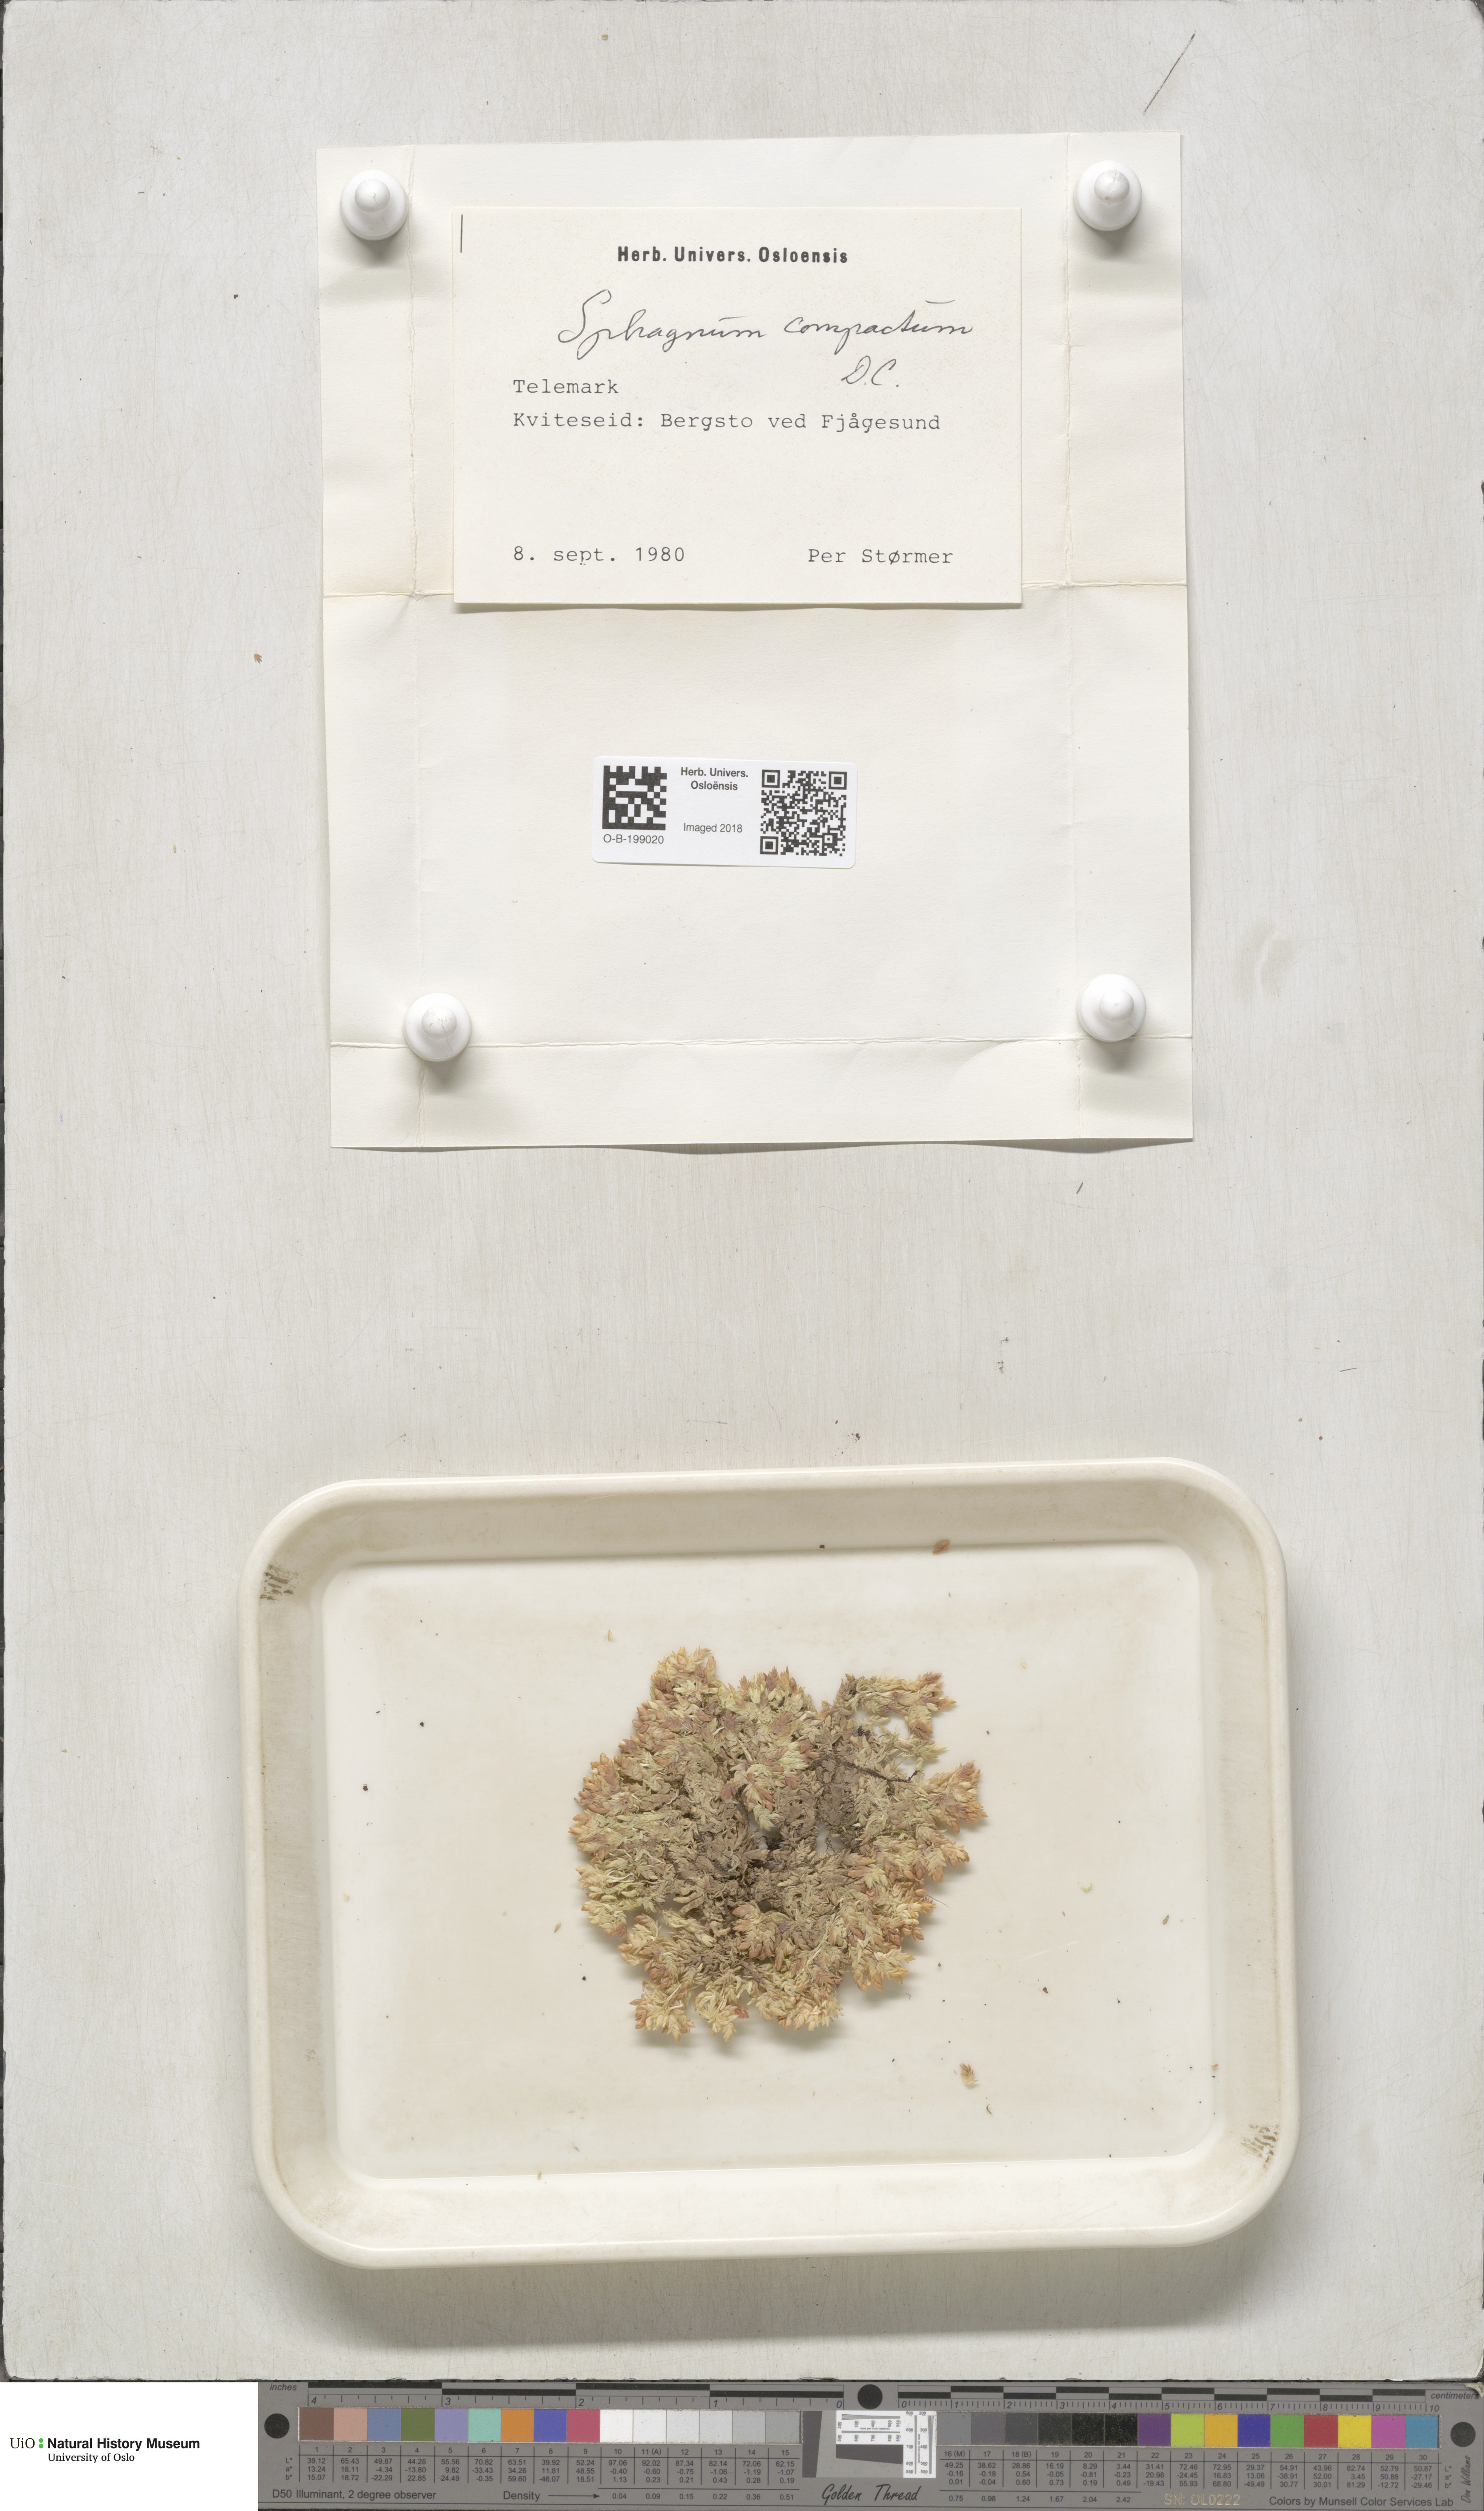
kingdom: Plantae
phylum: Bryophyta
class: Sphagnopsida
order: Sphagnales
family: Sphagnaceae
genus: Sphagnum
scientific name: Sphagnum compactum
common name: Compact peat moss
